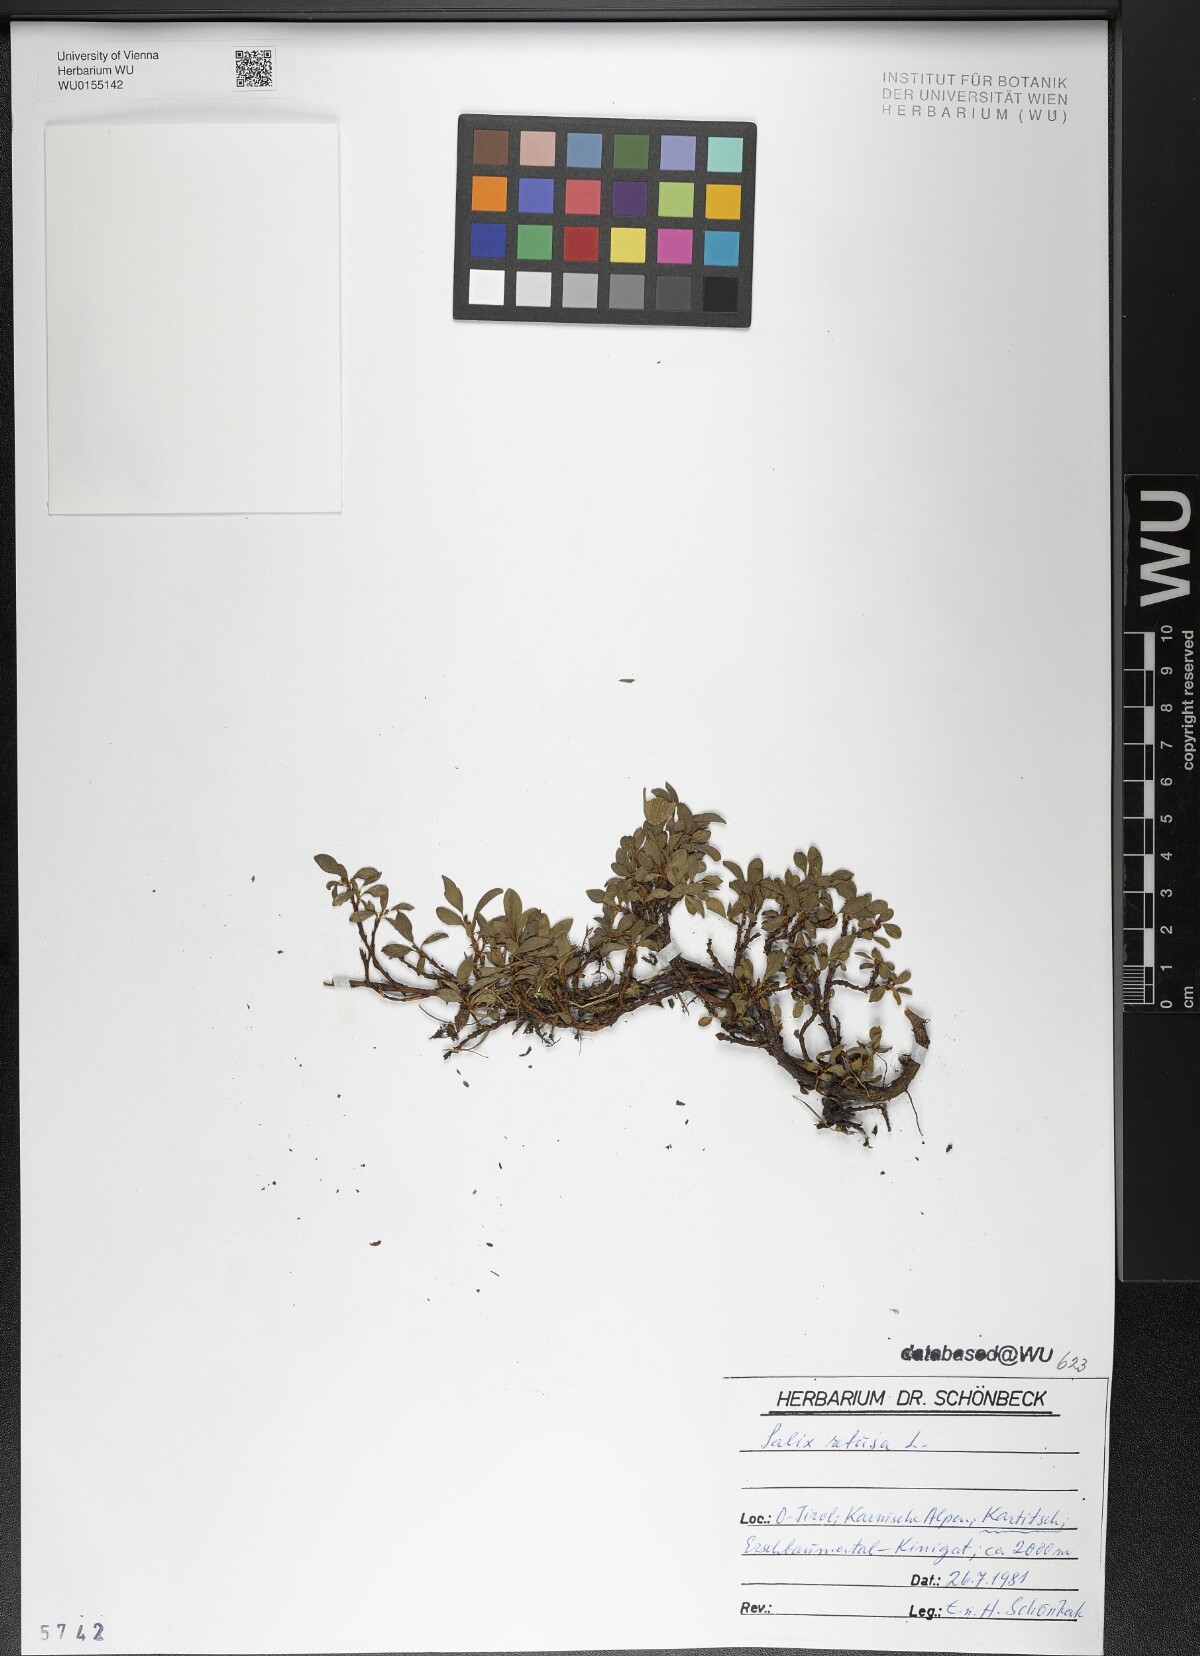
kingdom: Plantae
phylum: Tracheophyta
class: Magnoliopsida
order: Malpighiales
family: Salicaceae
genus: Salix
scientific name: Salix retusa
